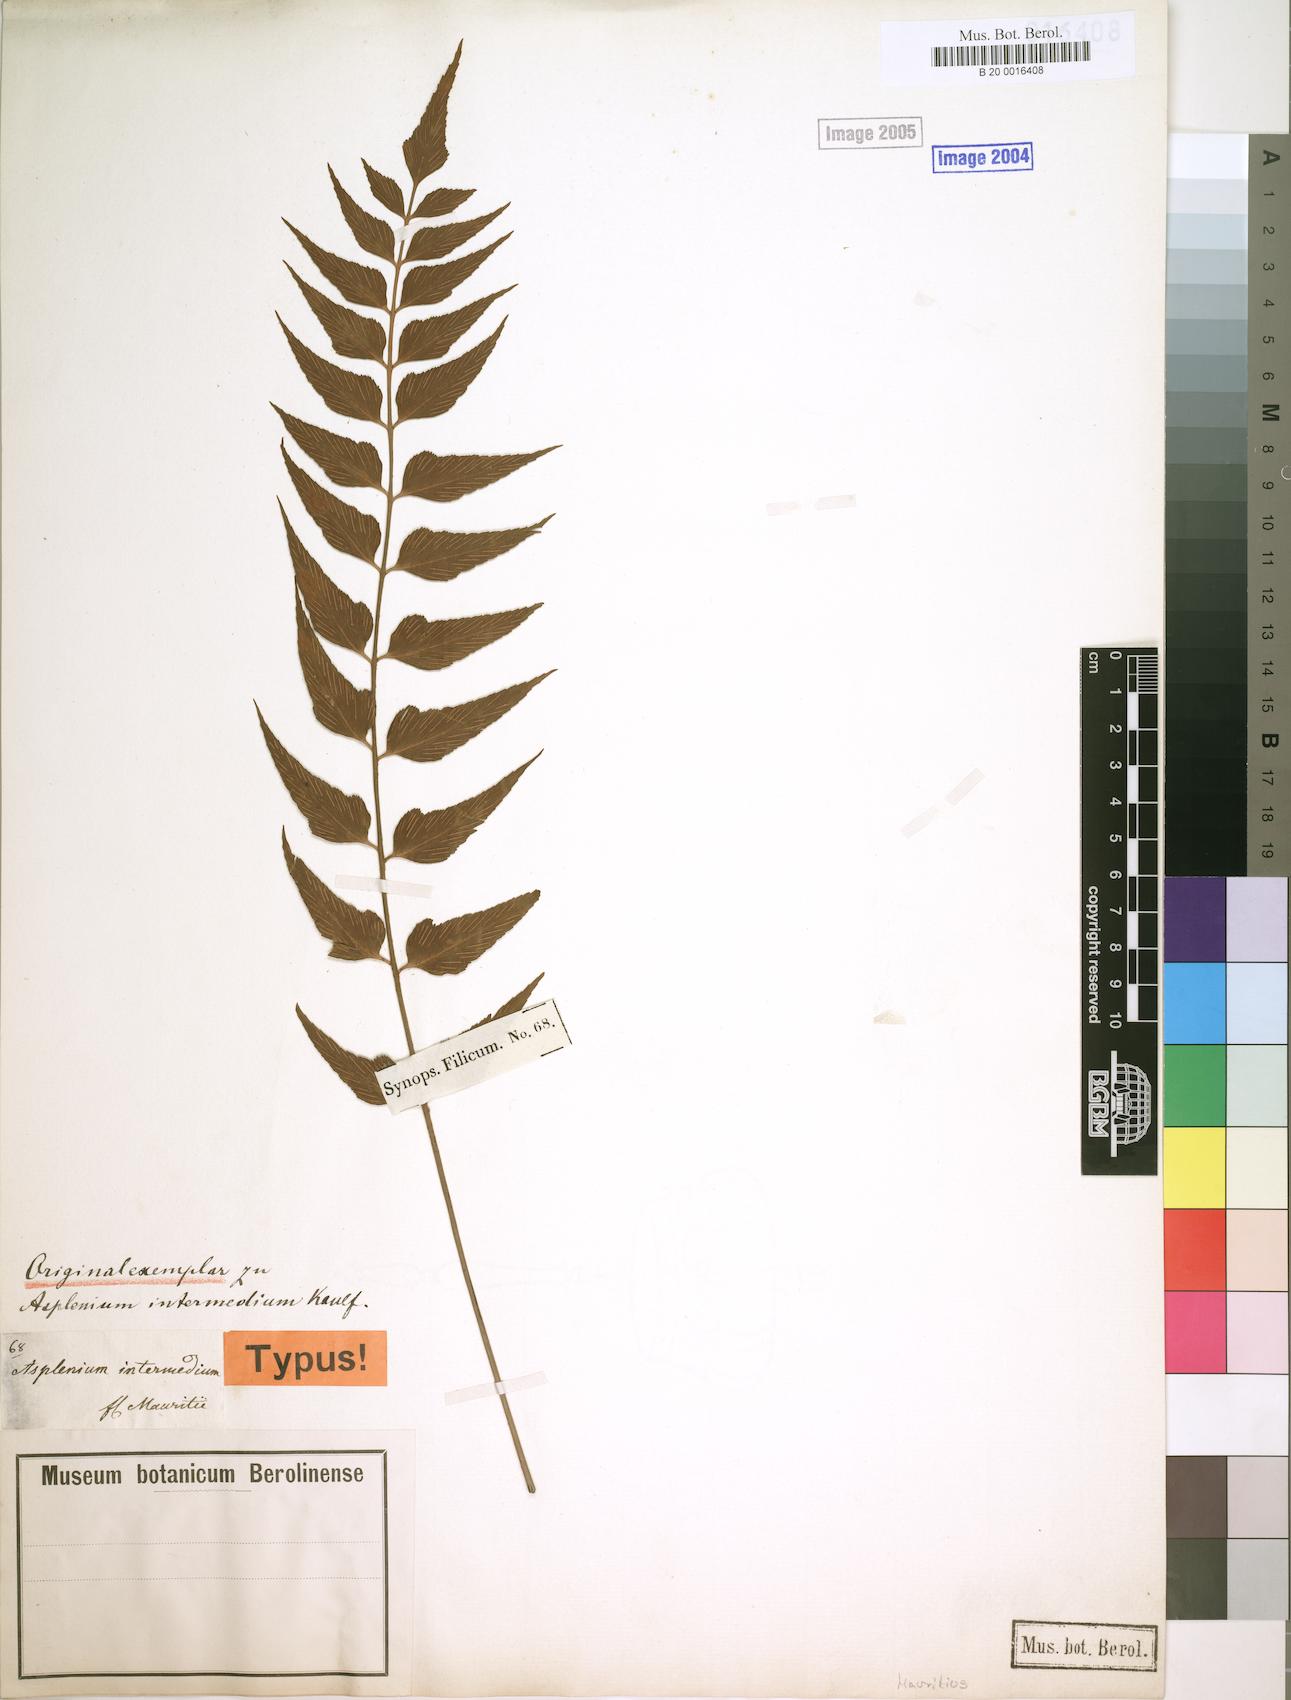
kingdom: Plantae
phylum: Tracheophyta
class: Polypodiopsida
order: Polypodiales
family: Aspleniaceae
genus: Asplenium
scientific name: Asplenium simile
